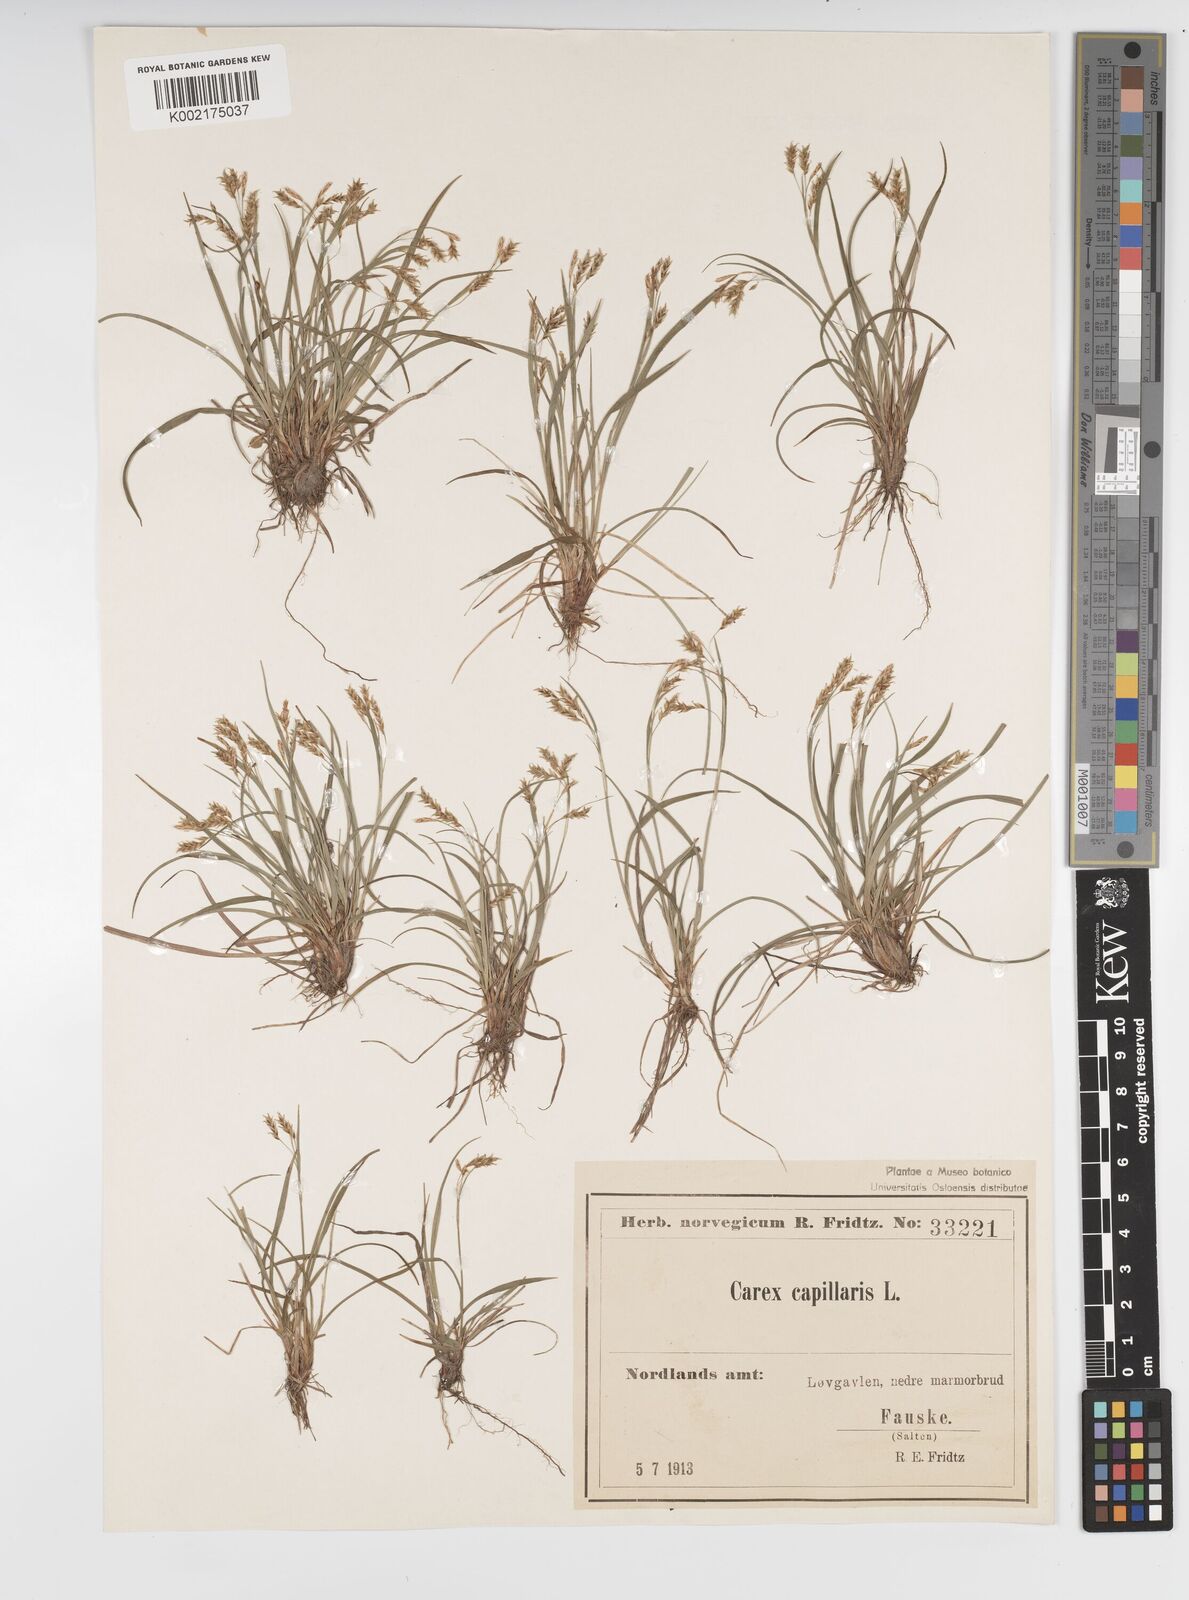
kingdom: Plantae
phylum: Tracheophyta
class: Liliopsida
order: Poales
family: Cyperaceae
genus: Carex
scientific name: Carex capillaris
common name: Hair sedge
